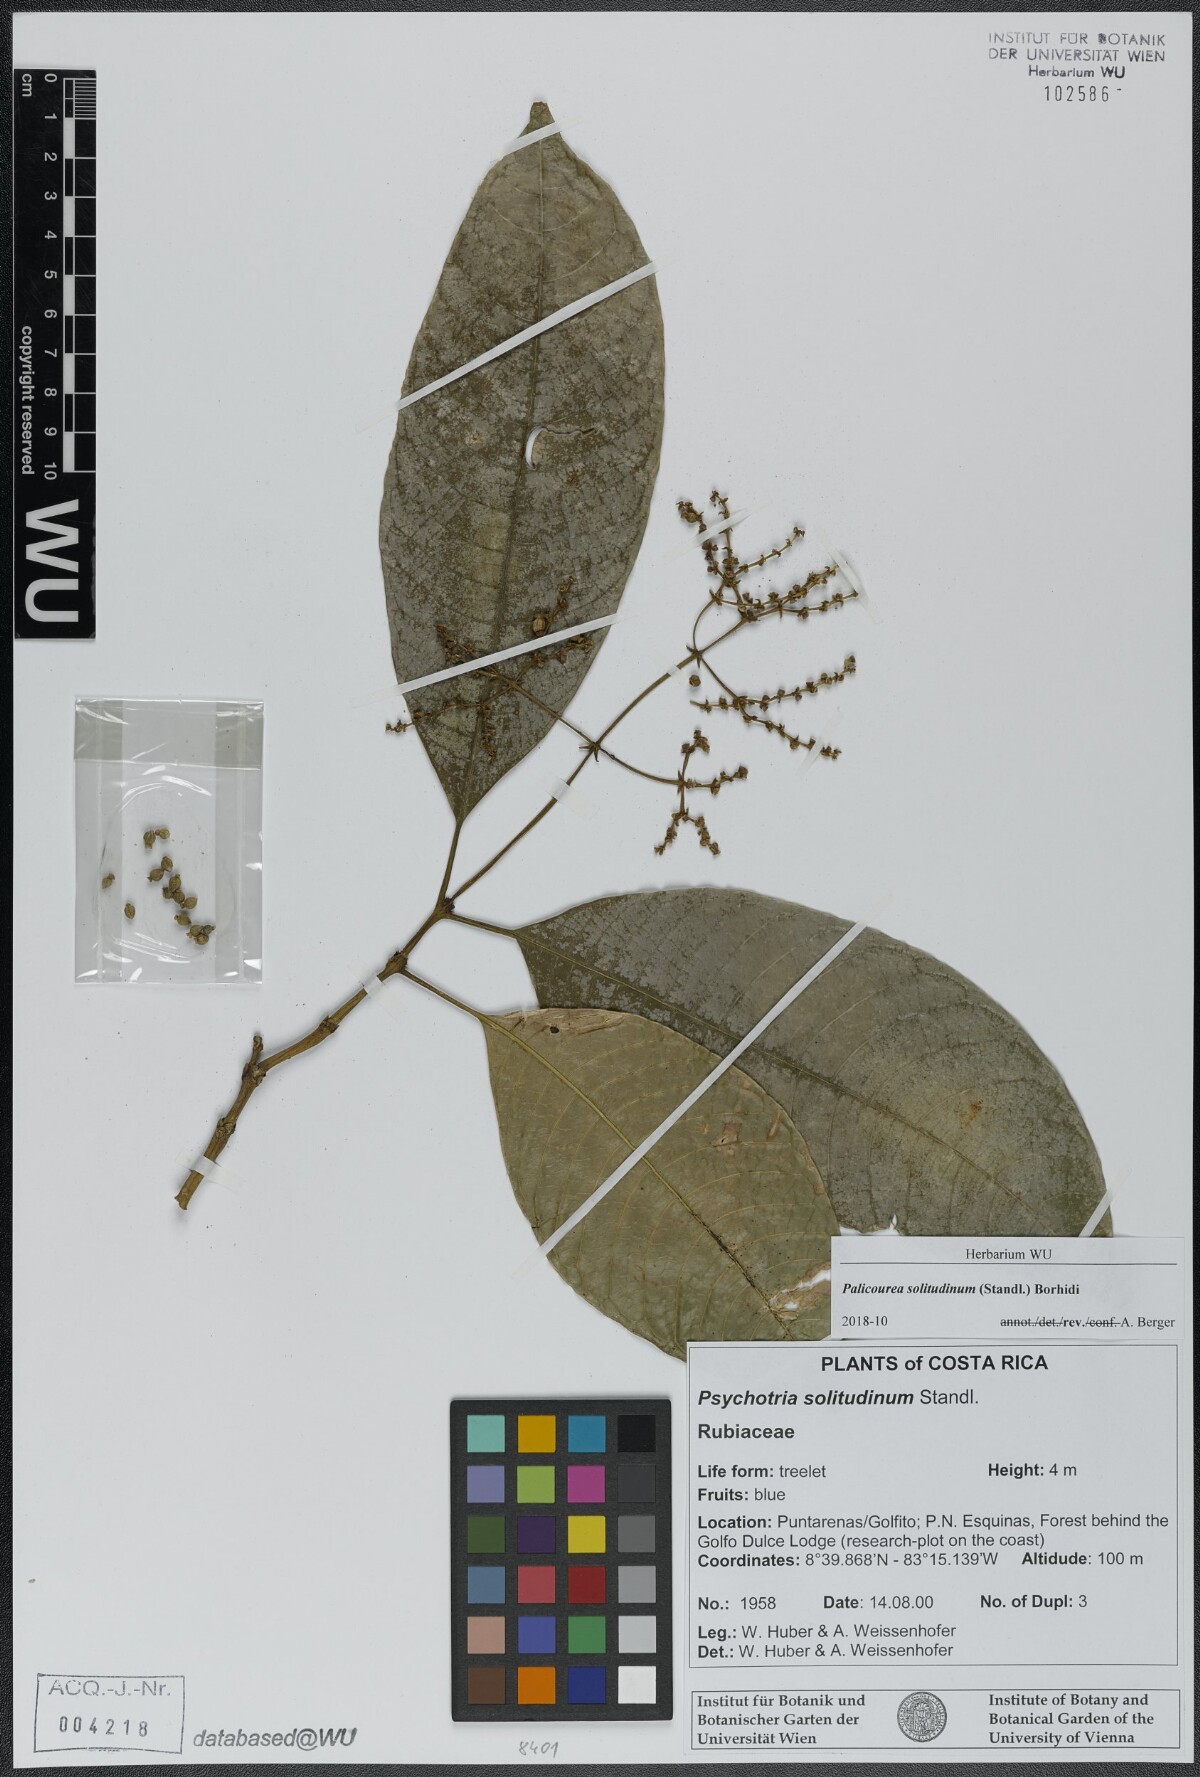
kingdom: Plantae
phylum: Tracheophyta
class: Magnoliopsida
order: Gentianales
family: Rubiaceae
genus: Palicourea
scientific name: Palicourea solitudinum
